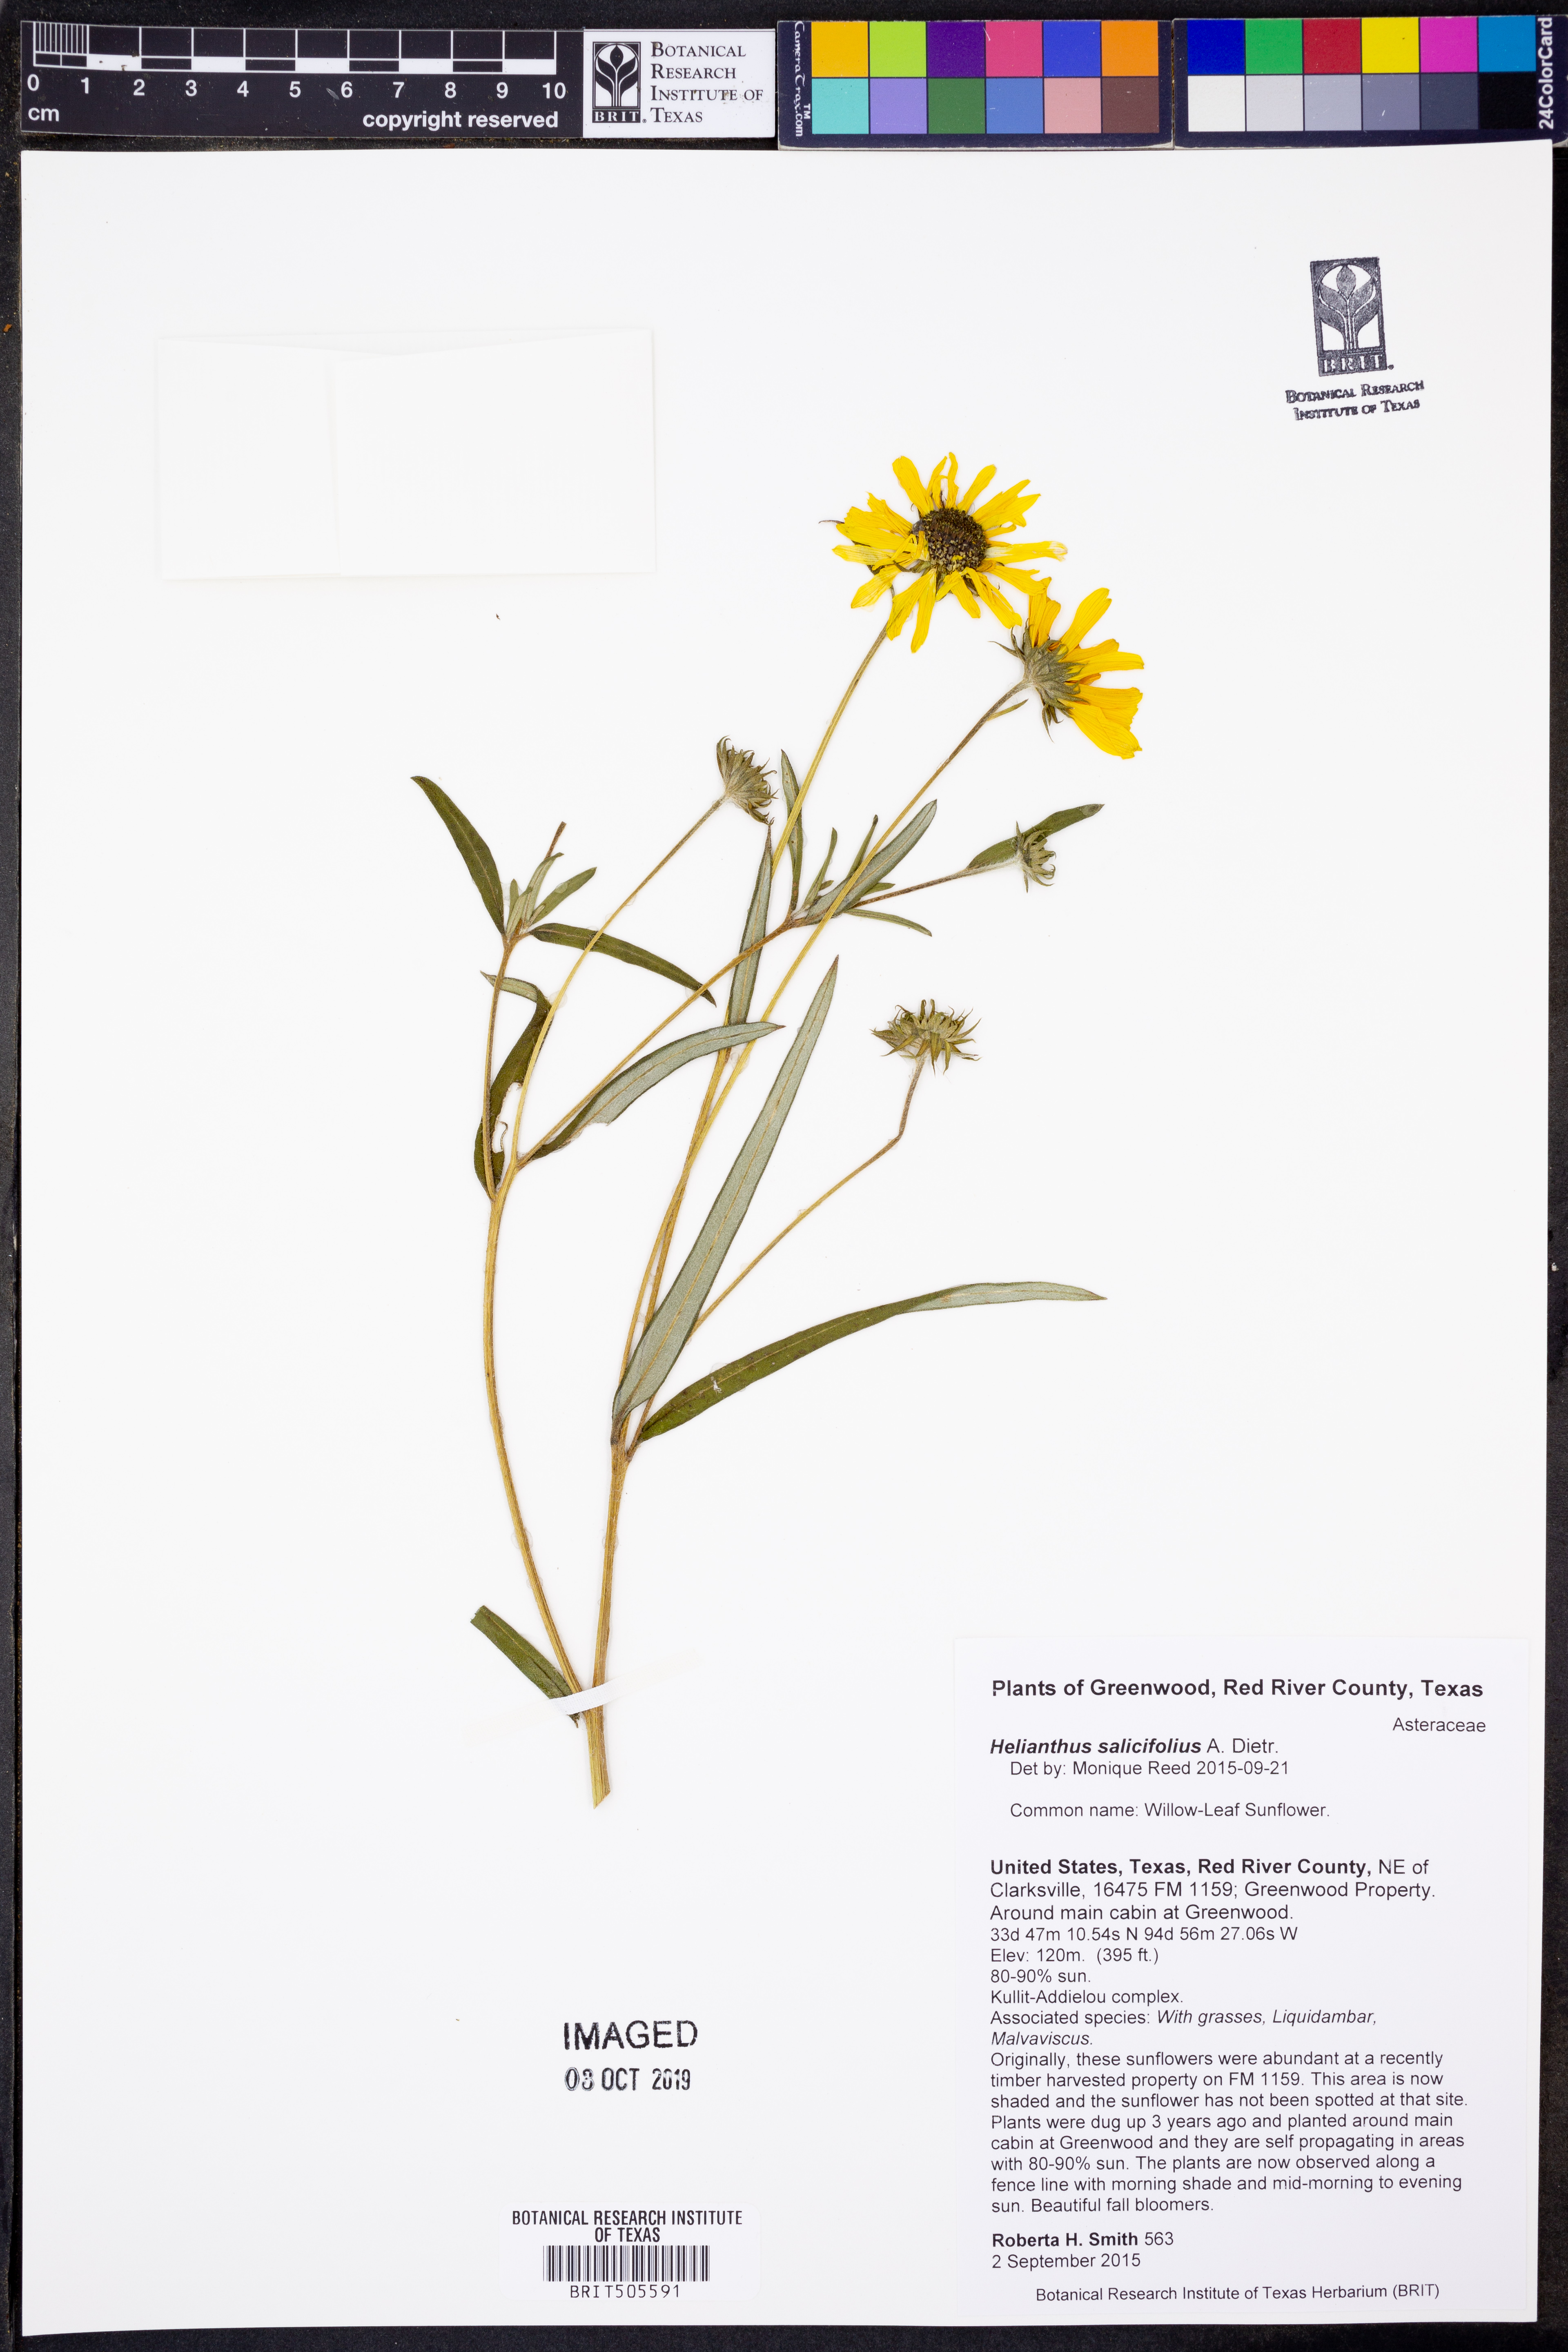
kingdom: Plantae
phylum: Tracheophyta
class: Magnoliopsida
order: Asterales
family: Asteraceae
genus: Helianthus
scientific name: Helianthus salicifolius
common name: Willowleaf sunflower
